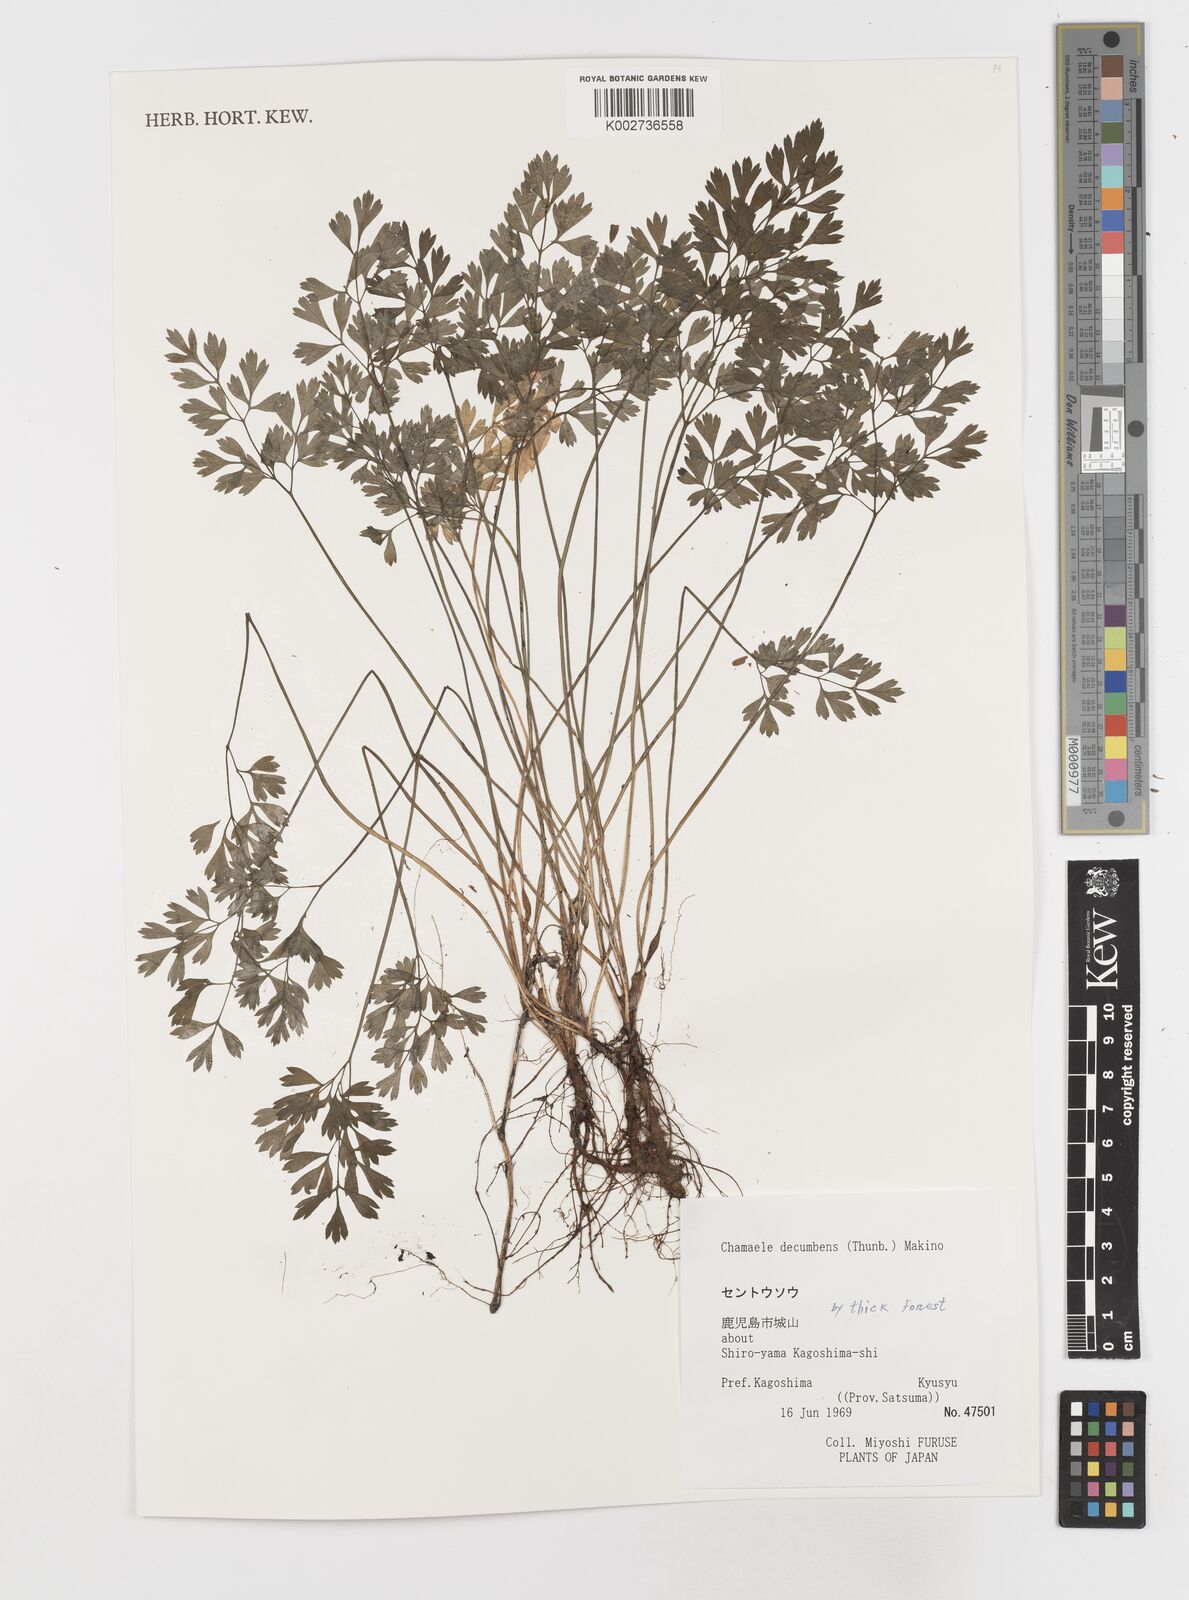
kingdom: Plantae
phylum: Tracheophyta
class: Magnoliopsida
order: Apiales
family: Apiaceae
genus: Aegopodium
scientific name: Aegopodium decumbens
